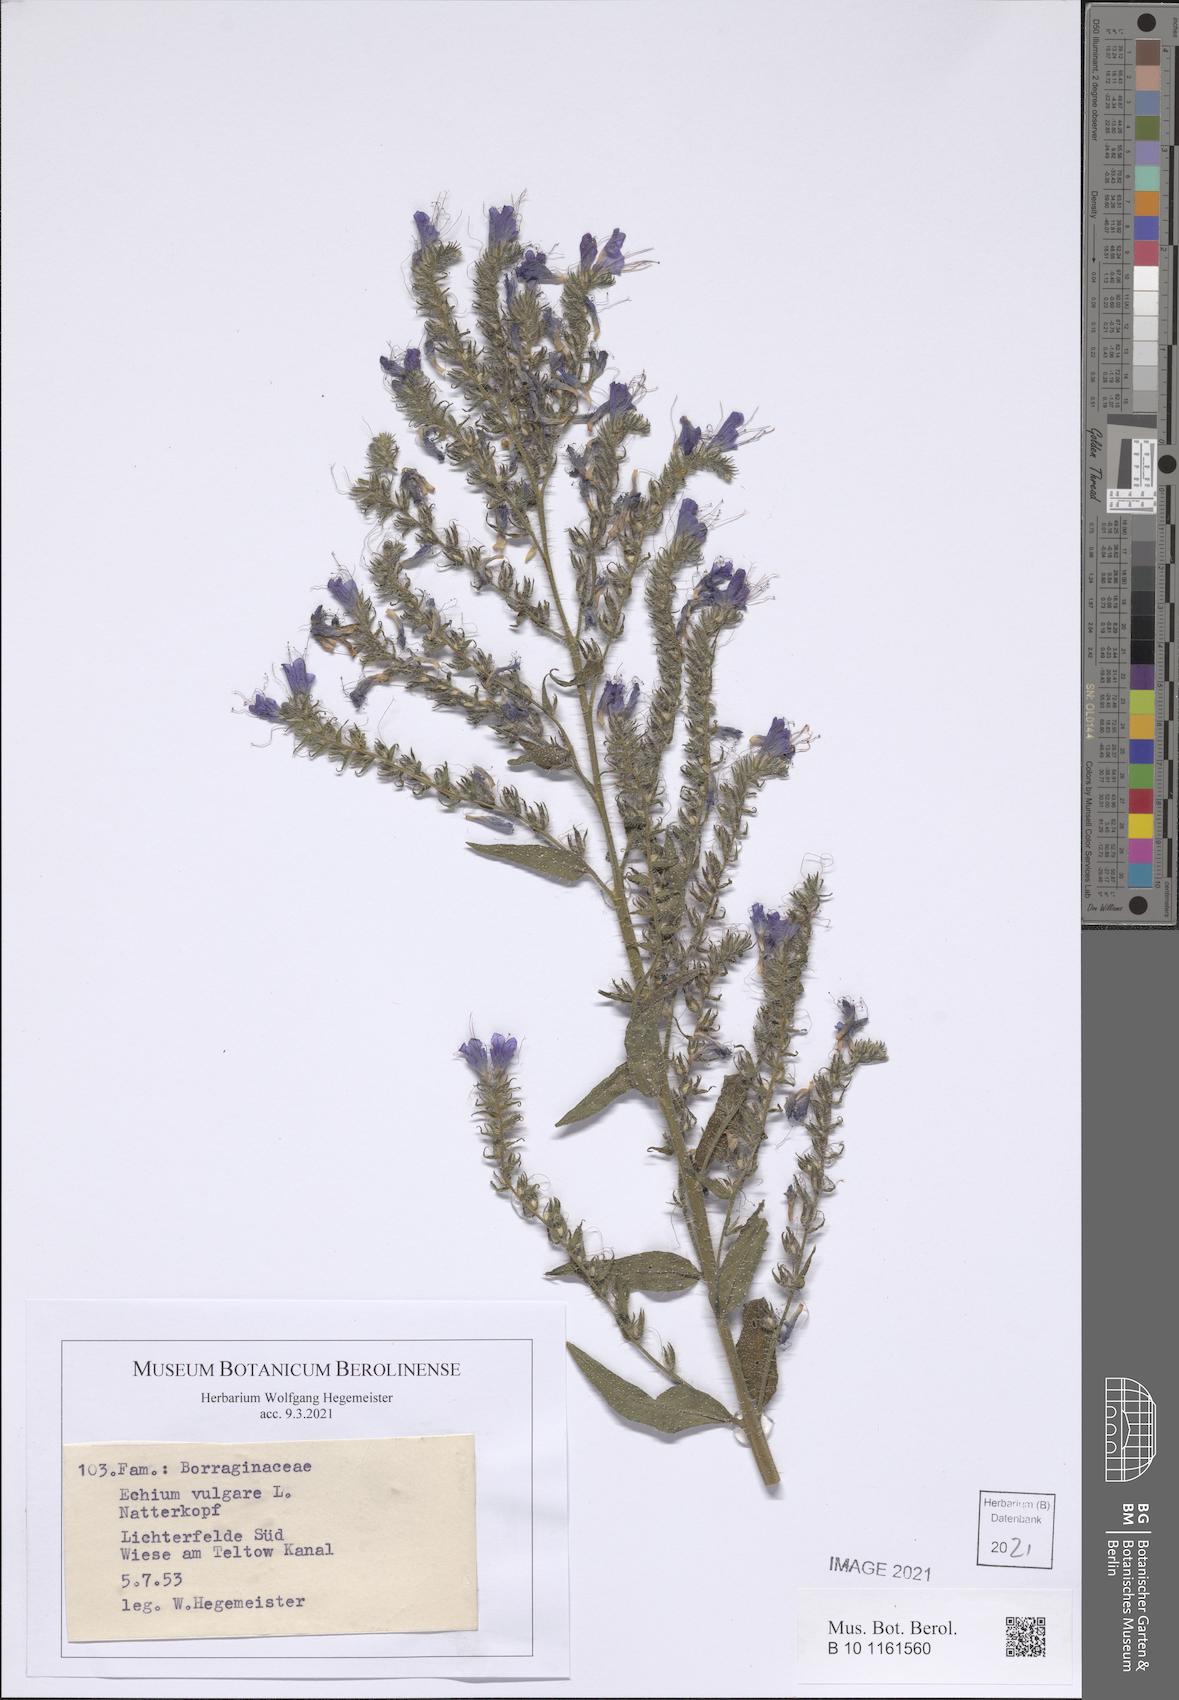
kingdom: Plantae
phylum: Tracheophyta
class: Magnoliopsida
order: Boraginales
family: Boraginaceae
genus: Echium
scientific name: Echium vulgare
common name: Common viper's bugloss
